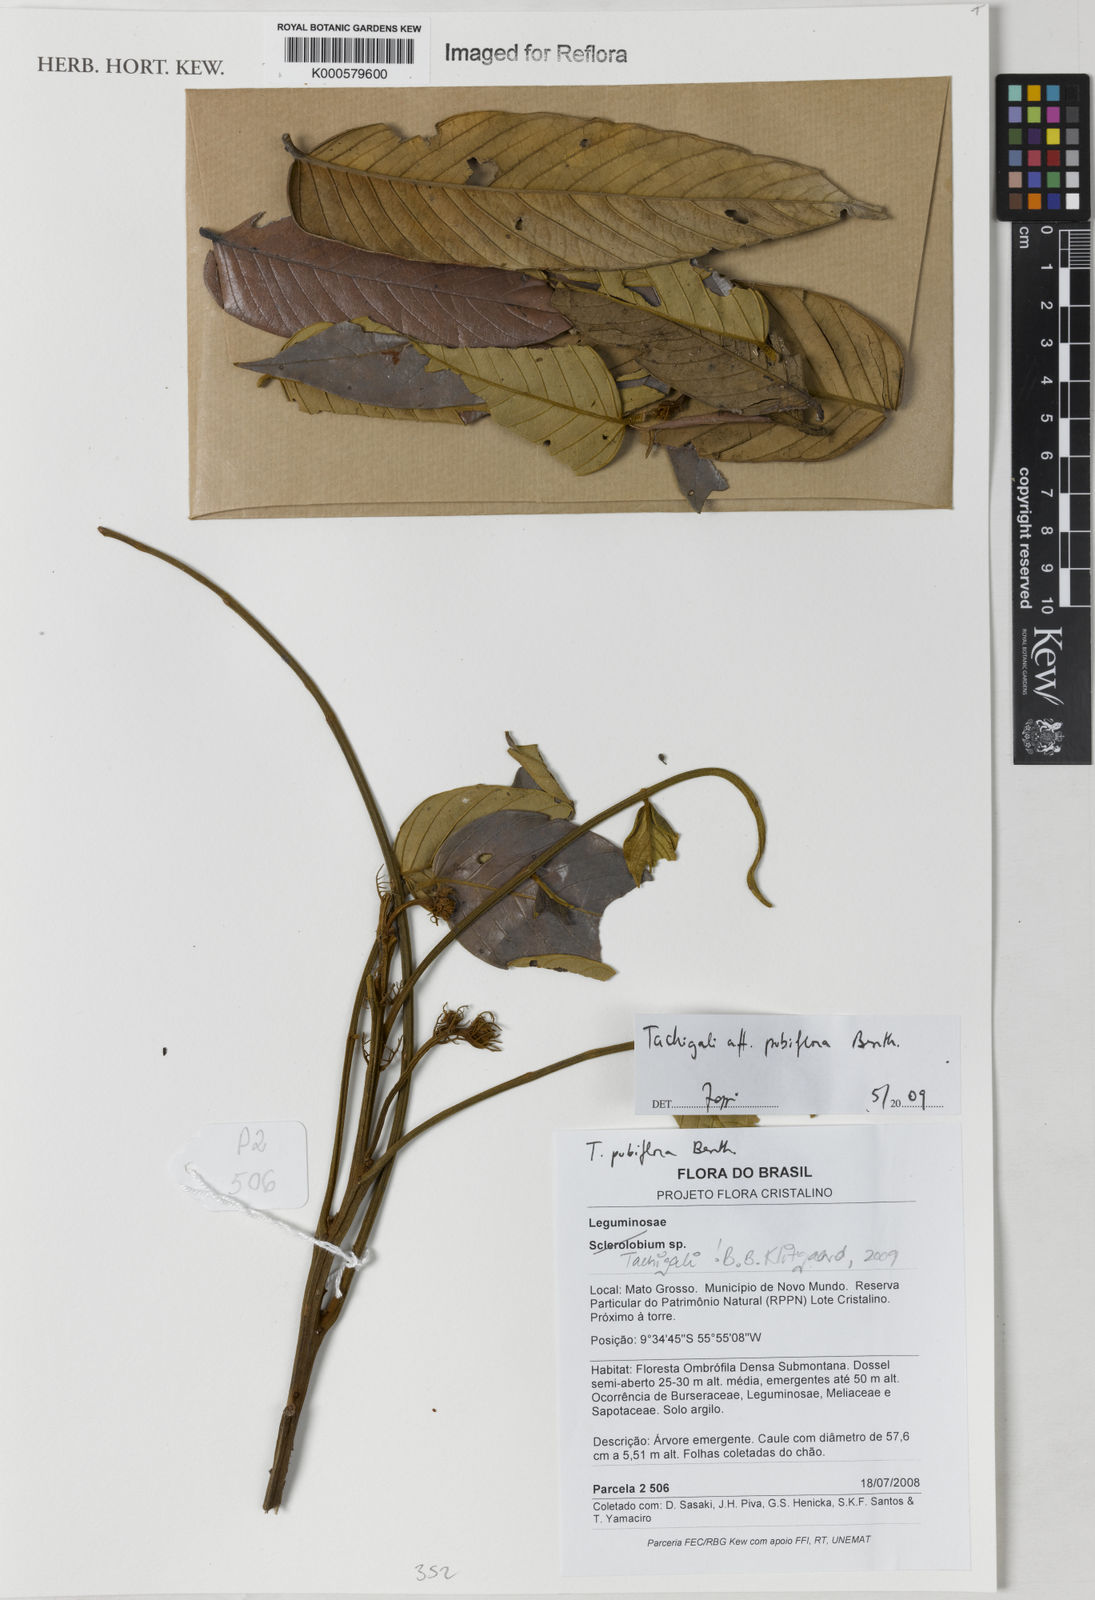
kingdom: Plantae
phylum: Tracheophyta
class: Magnoliopsida
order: Fabales
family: Fabaceae
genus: Tachigali
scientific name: Tachigali pubiflora
